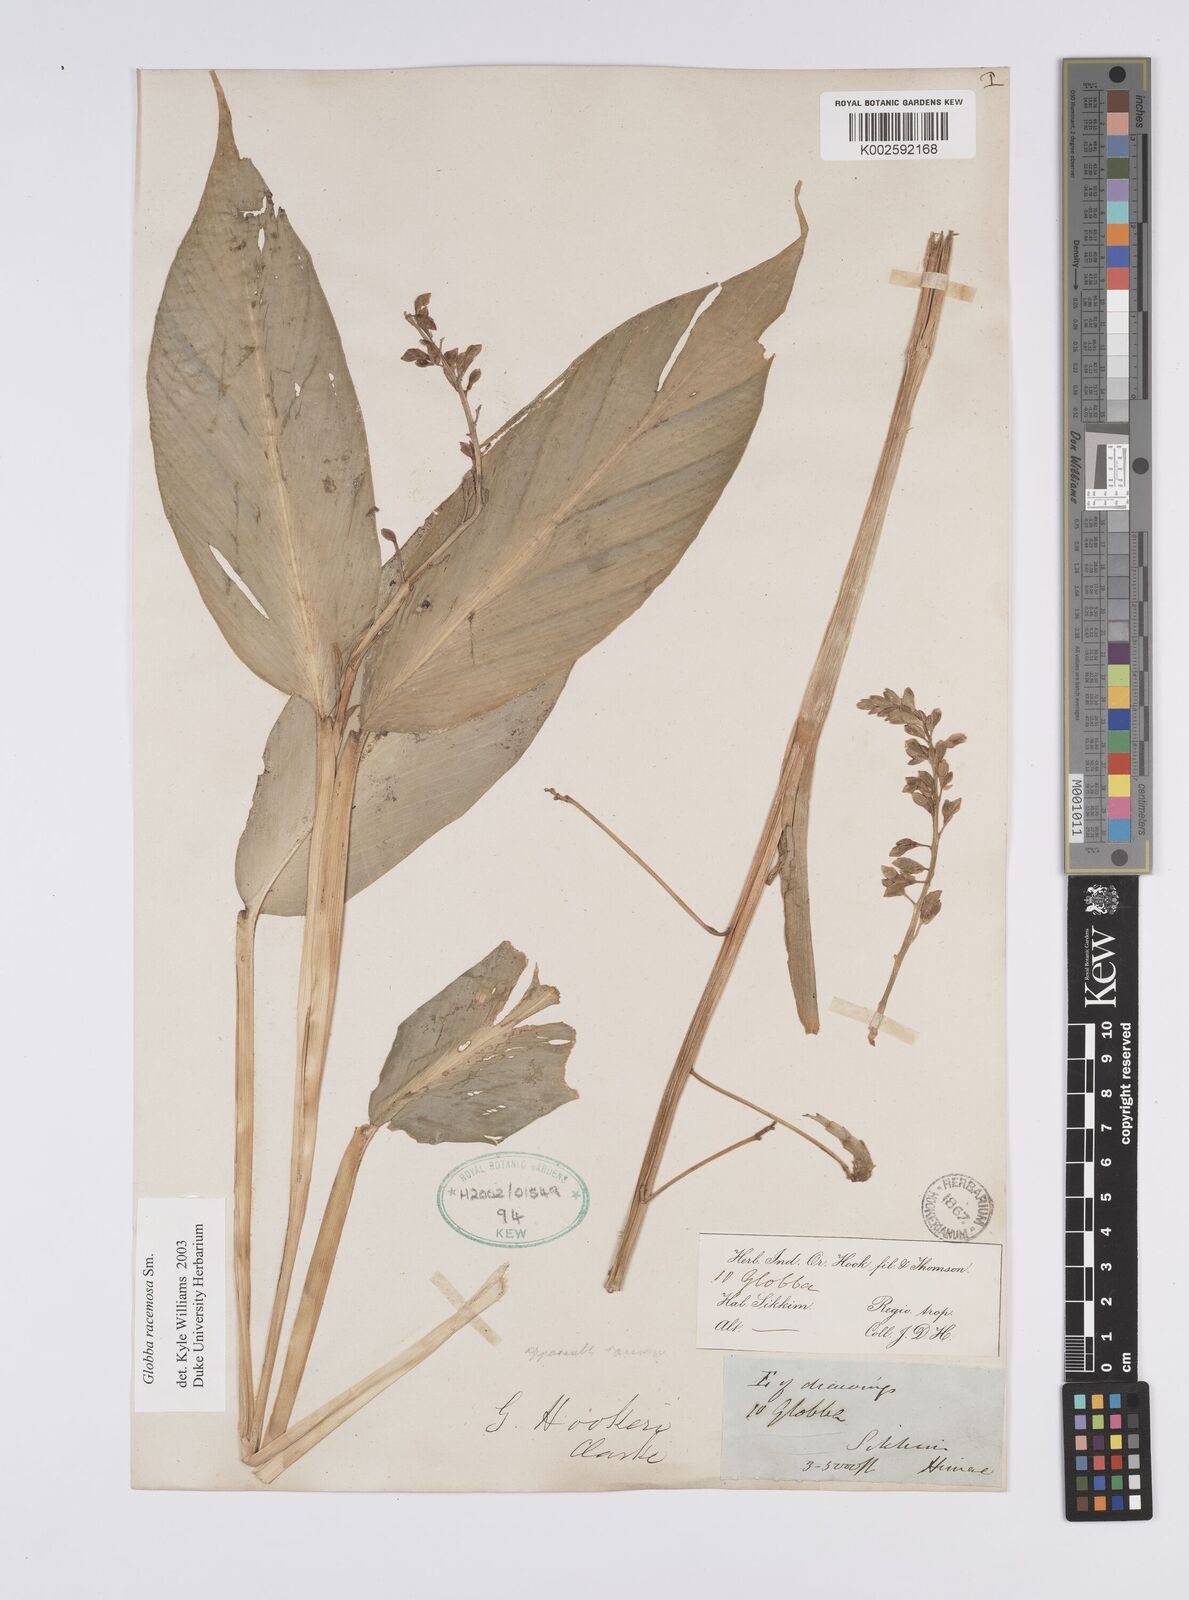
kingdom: Plantae
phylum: Tracheophyta
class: Liliopsida
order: Zingiberales
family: Zingiberaceae
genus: Globba
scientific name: Globba racemosa
